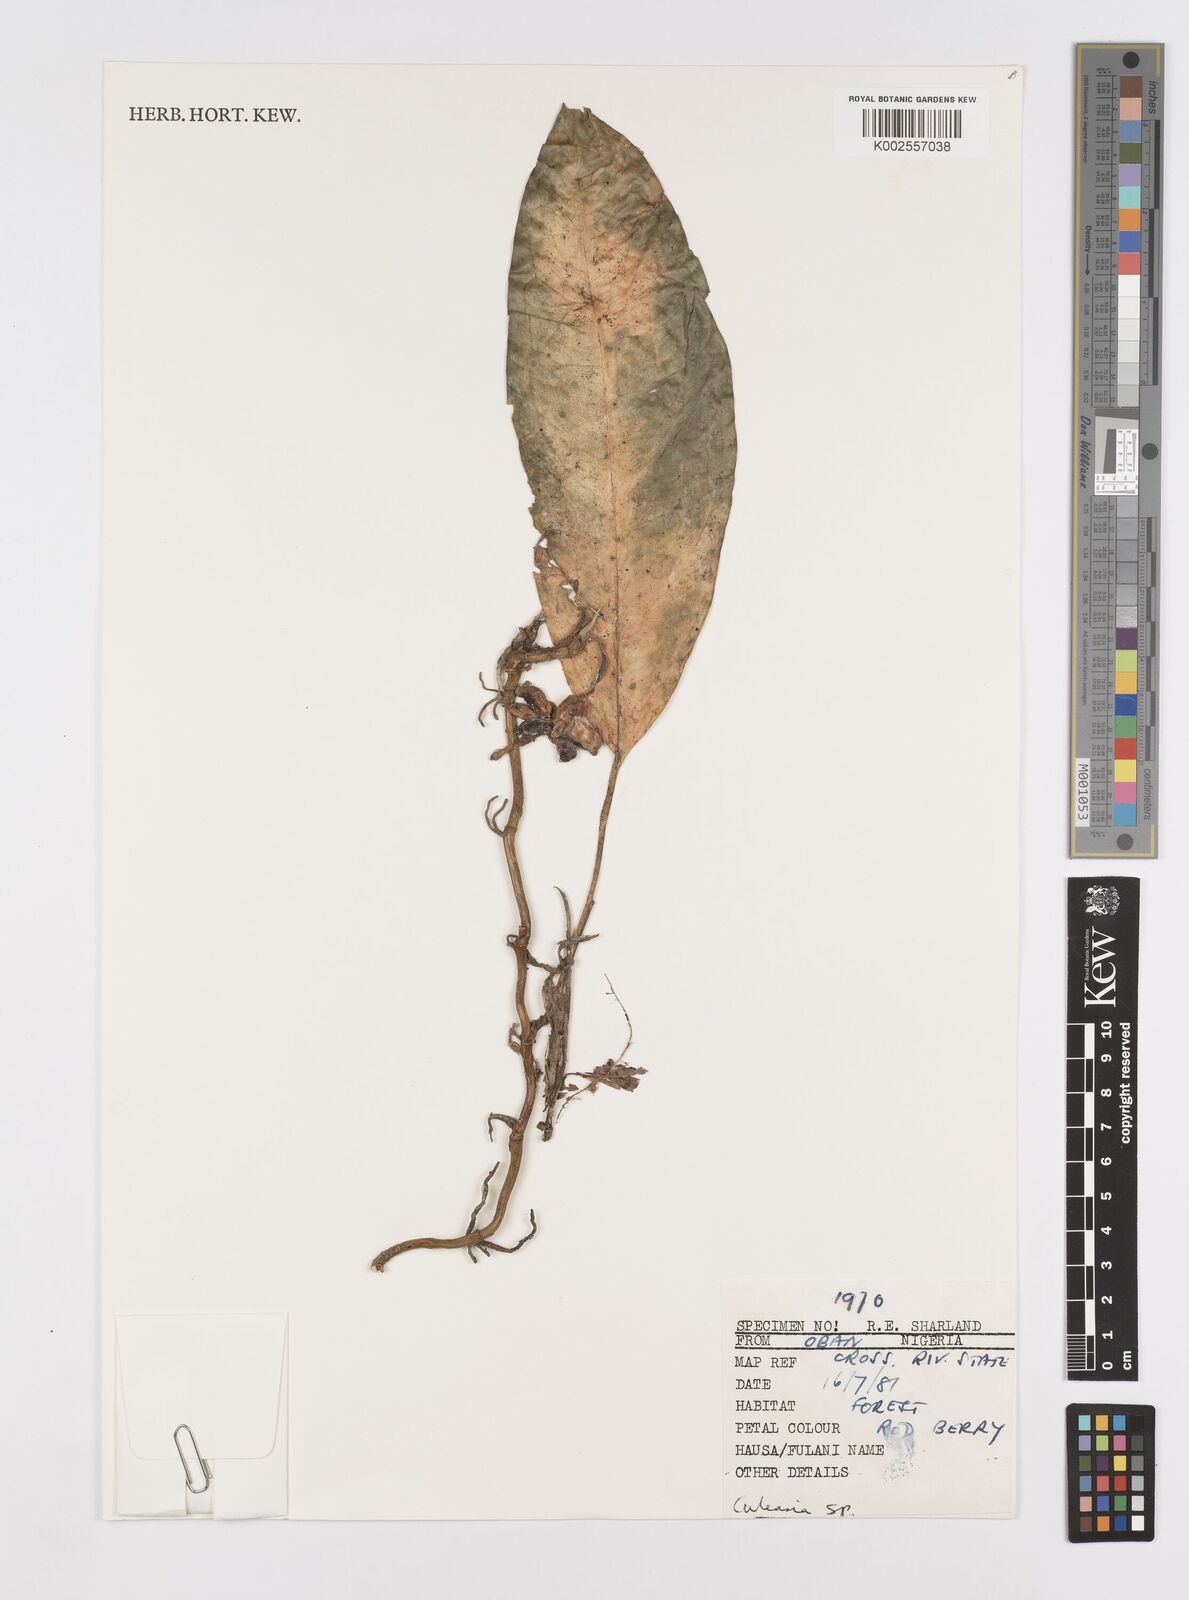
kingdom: Plantae
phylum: Tracheophyta
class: Liliopsida
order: Alismatales
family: Araceae
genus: Culcasia
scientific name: Culcasia
